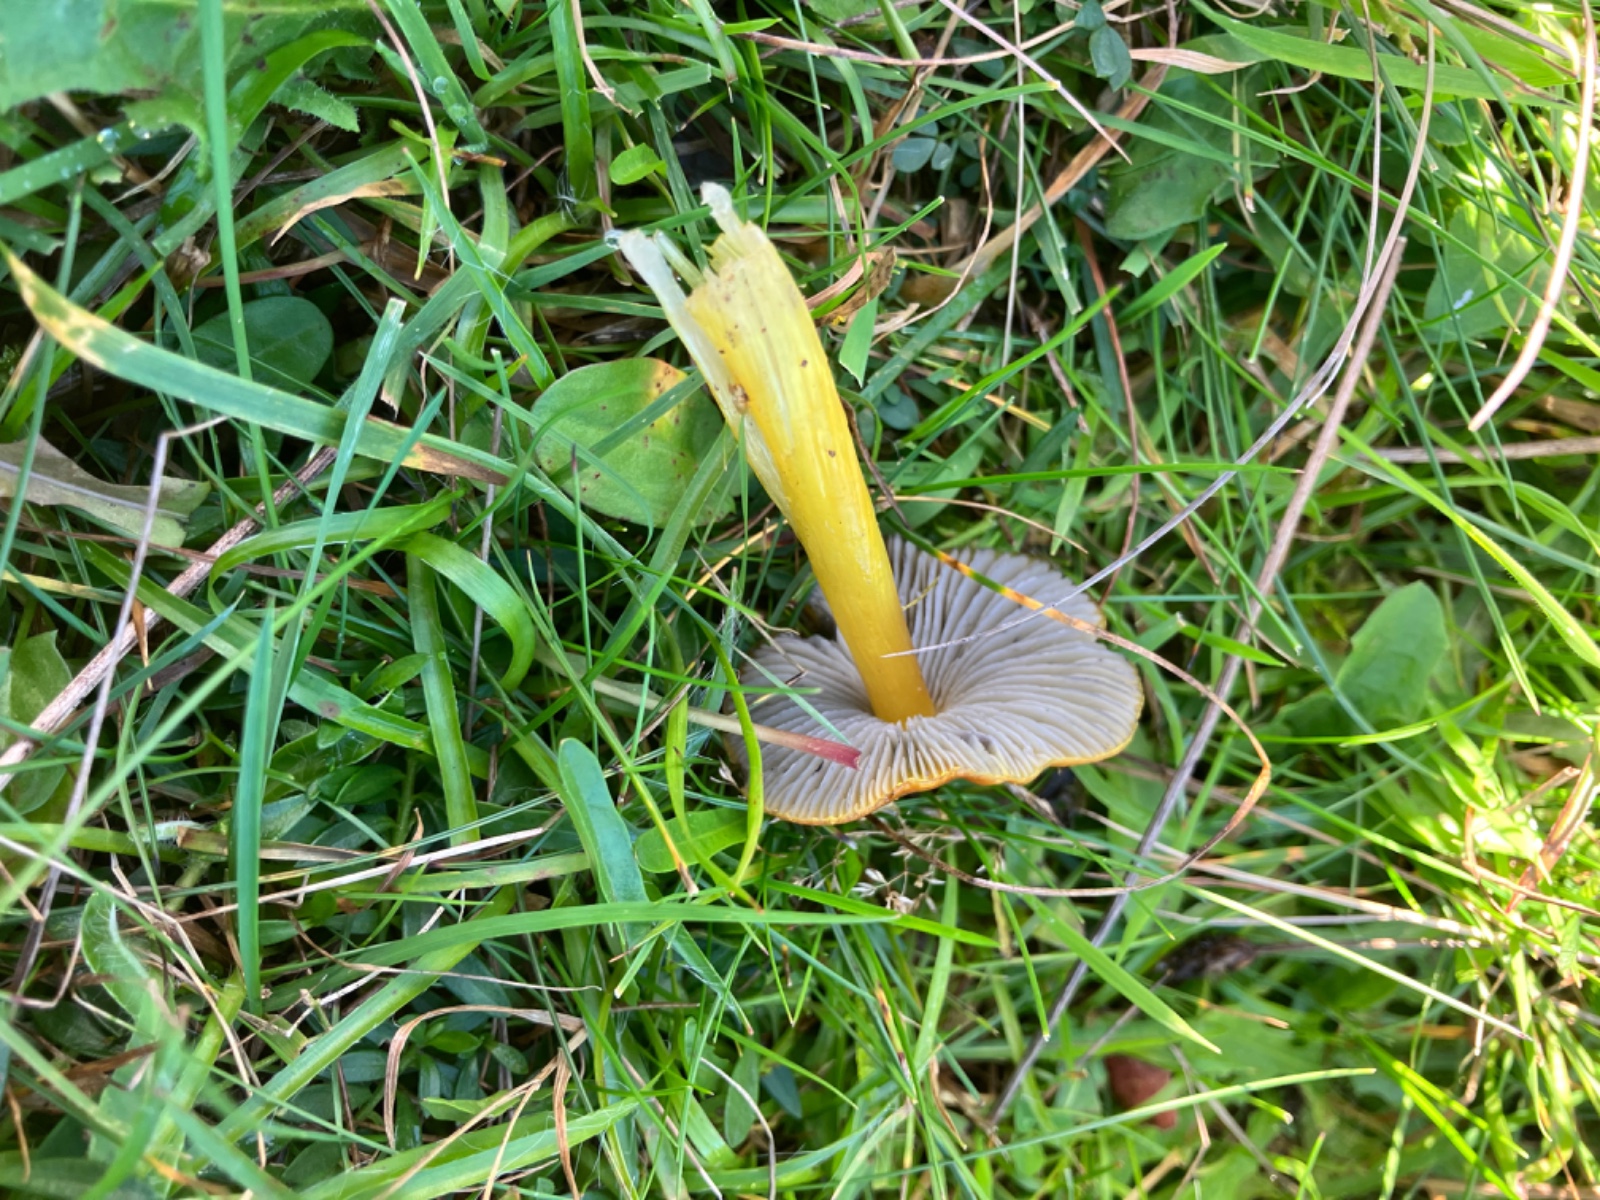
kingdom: Fungi
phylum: Basidiomycota
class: Agaricomycetes
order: Agaricales
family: Hygrophoraceae
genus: Hygrocybe
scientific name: Hygrocybe conica
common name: kegle-vokshat
